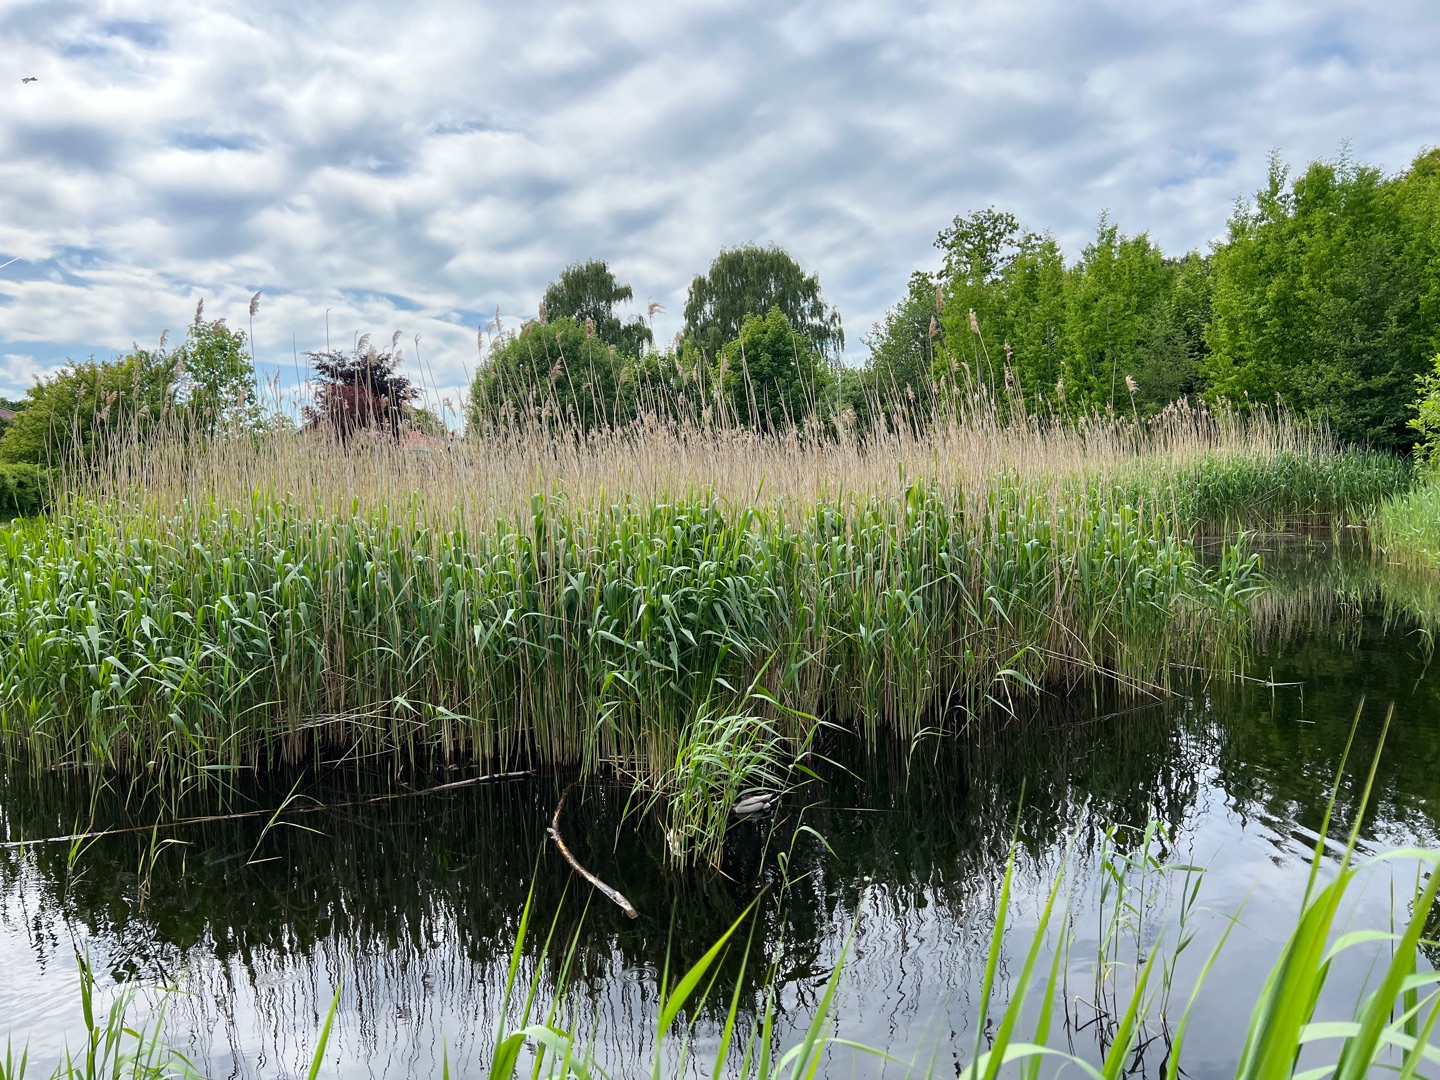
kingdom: Plantae
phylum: Tracheophyta
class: Liliopsida
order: Poales
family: Poaceae
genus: Phragmites
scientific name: Phragmites australis
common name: Tagrør
